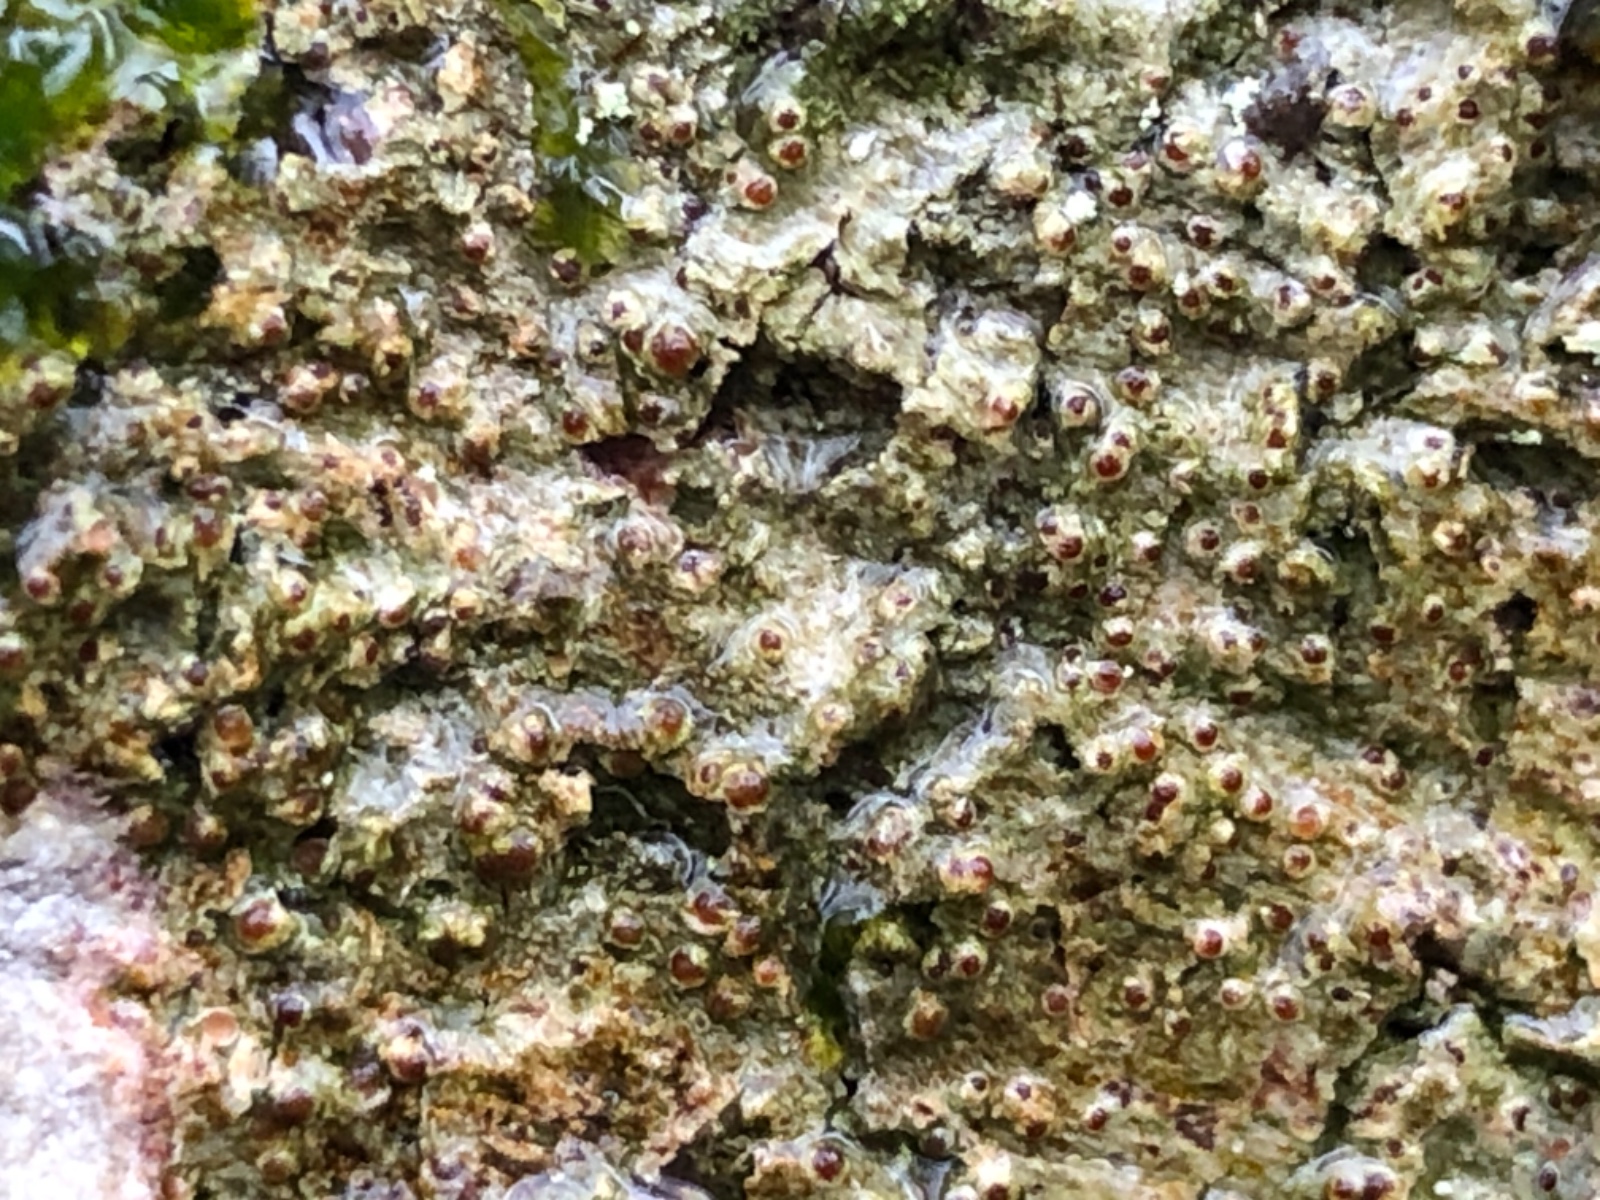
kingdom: Fungi
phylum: Ascomycota
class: Lecanoromycetes
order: Gyalectales
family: Gyalectaceae
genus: Pachyphiale
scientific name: Pachyphiale carneola
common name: rødbrun gammelskovslav
